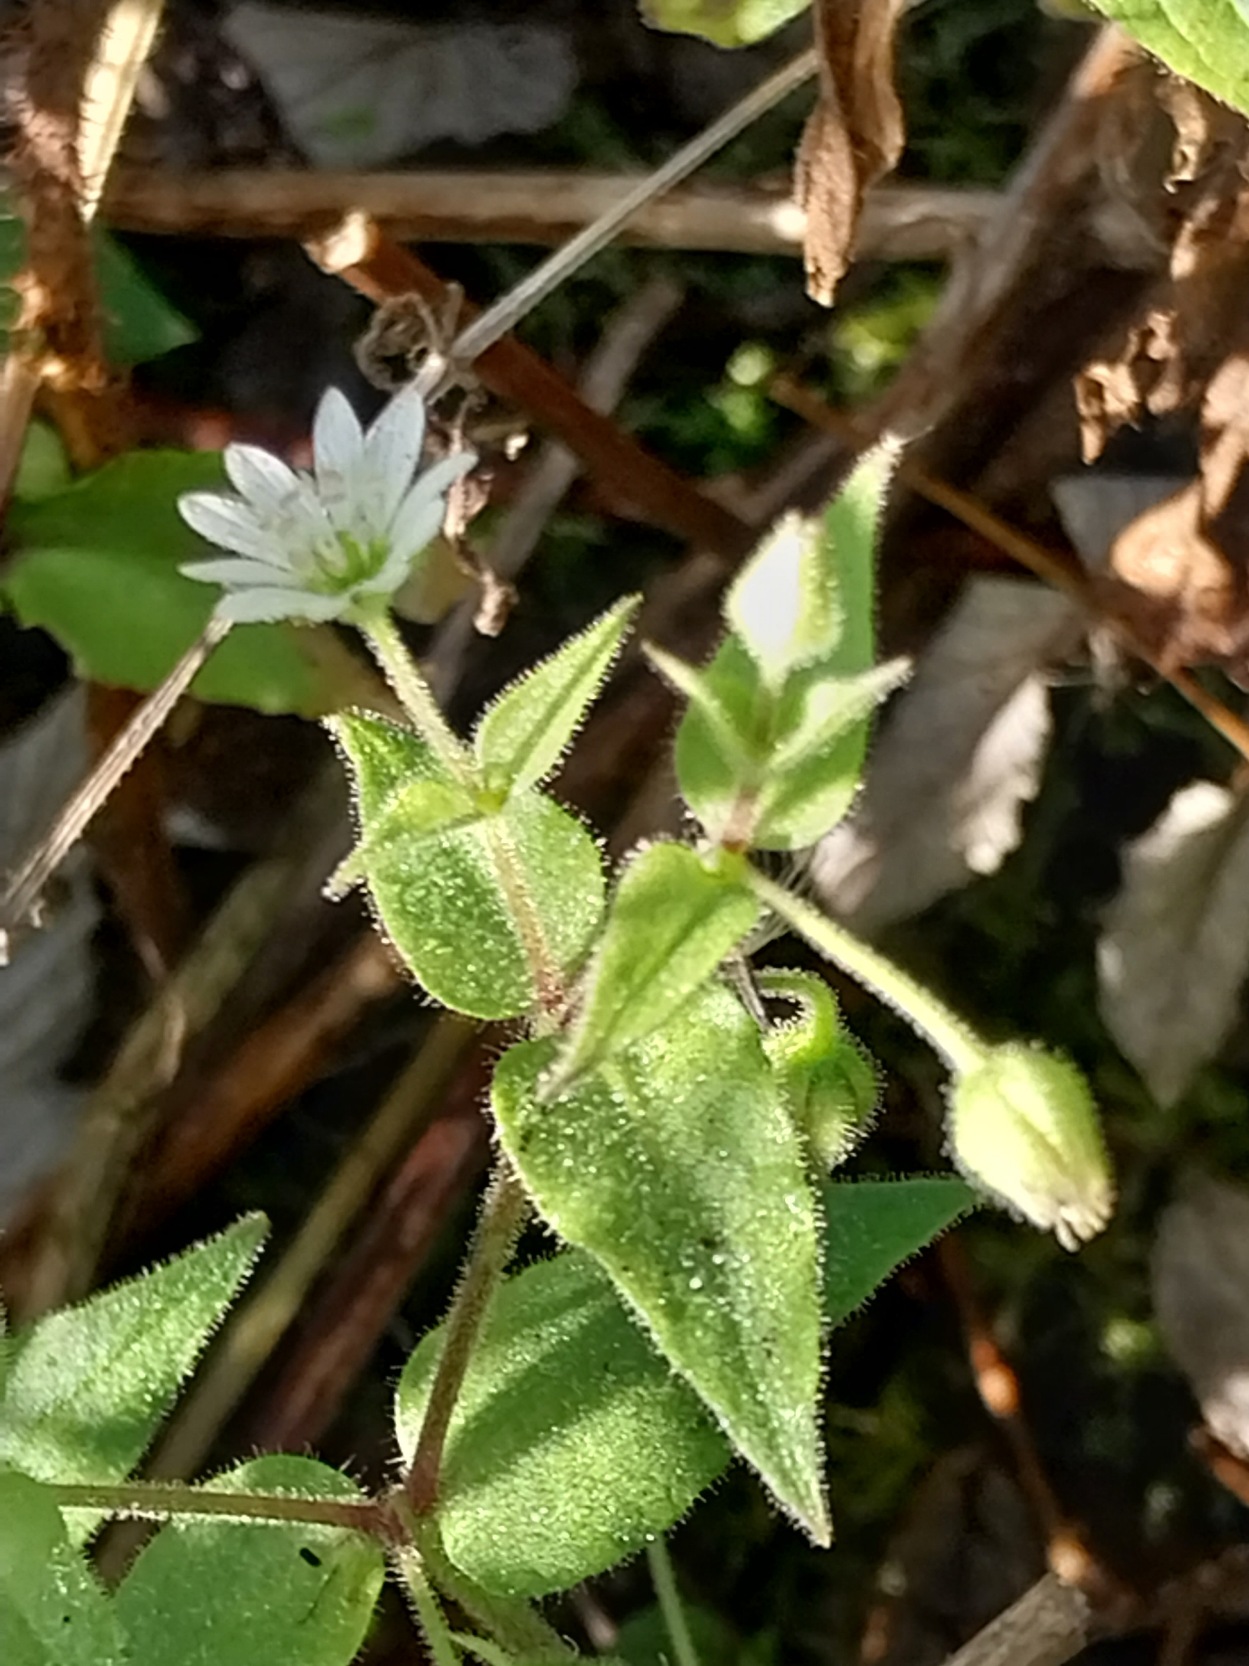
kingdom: Plantae
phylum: Tracheophyta
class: Magnoliopsida
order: Caryophyllales
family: Caryophyllaceae
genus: Stellaria
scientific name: Stellaria aquatica
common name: Kløvkrone
